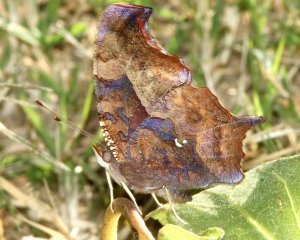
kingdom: Animalia
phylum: Arthropoda
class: Insecta
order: Lepidoptera
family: Nymphalidae
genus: Polygonia
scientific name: Polygonia interrogationis
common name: Question Mark
